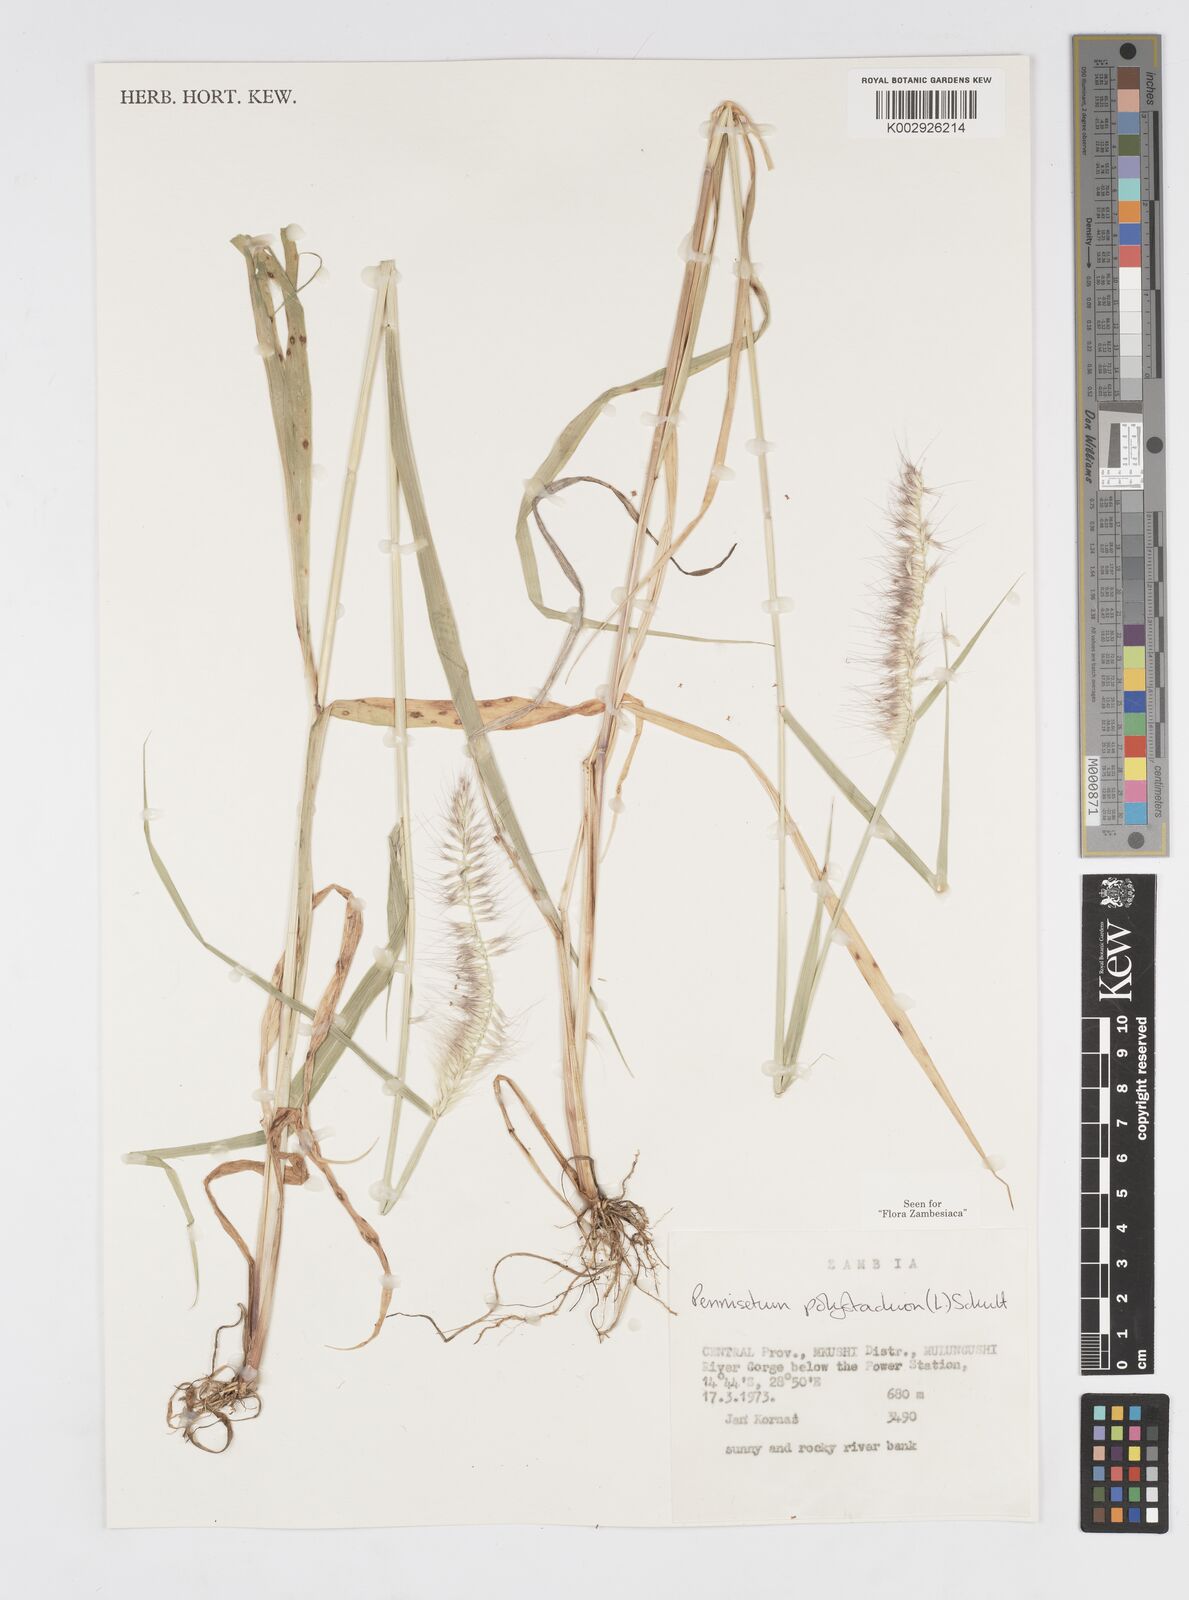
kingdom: Plantae
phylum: Tracheophyta
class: Liliopsida
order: Poales
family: Poaceae
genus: Setaria
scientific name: Setaria parviflora
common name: Knotroot bristle-grass
